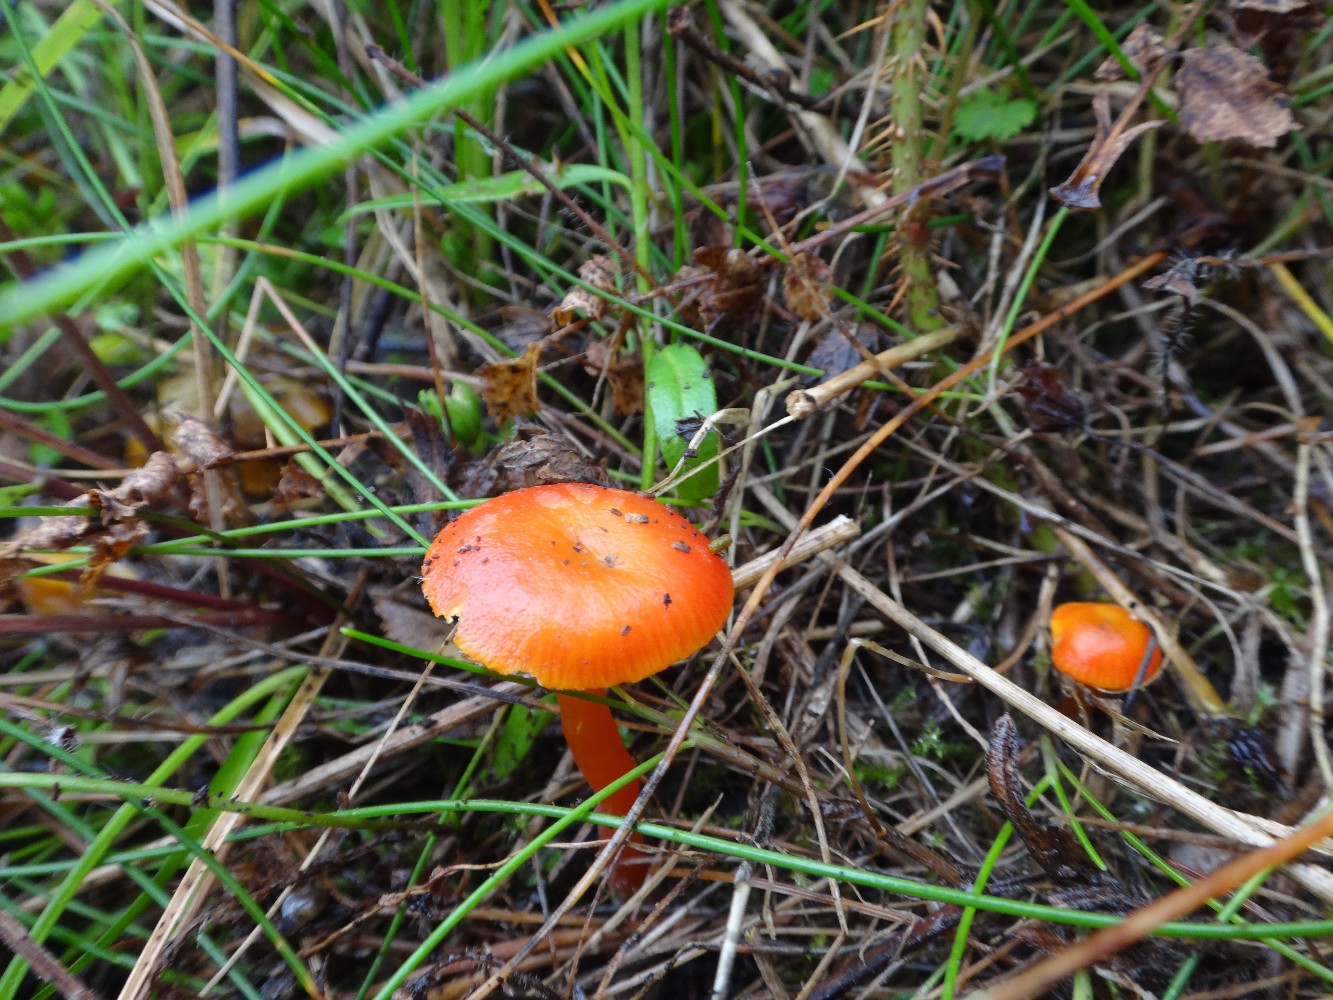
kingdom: Fungi
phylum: Basidiomycota
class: Agaricomycetes
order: Agaricales
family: Hygrophoraceae
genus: Hygrocybe
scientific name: Hygrocybe constrictospora
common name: koralrød vokshat
